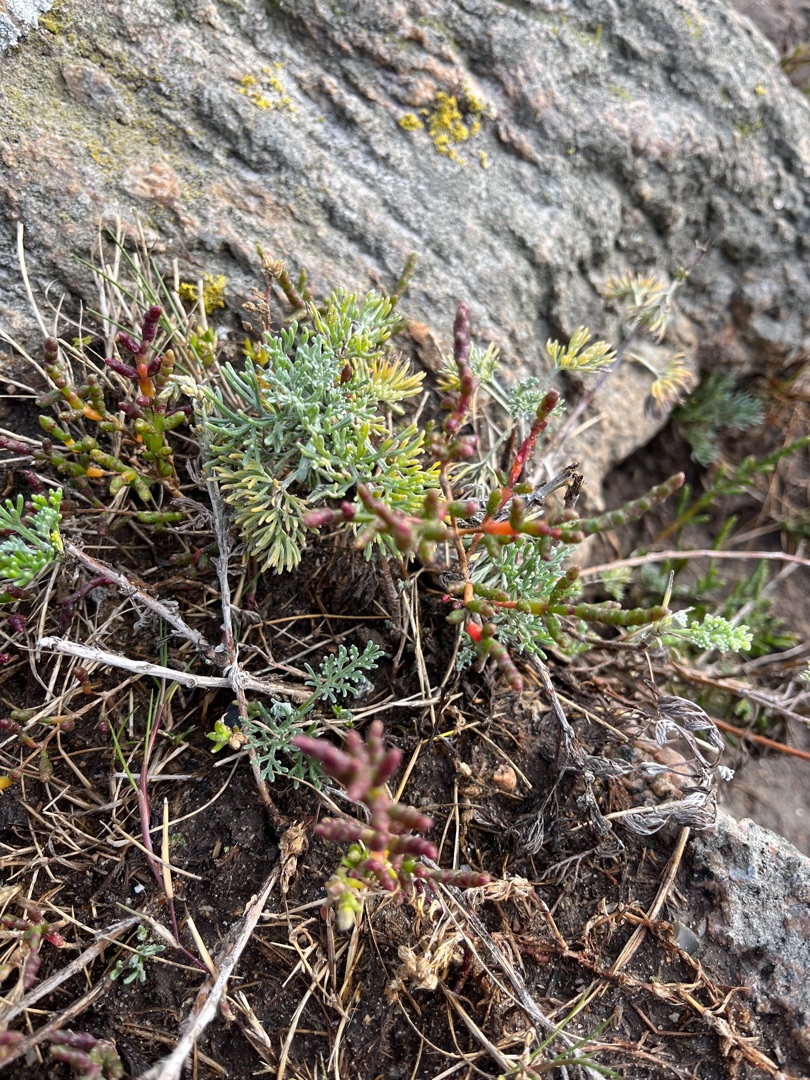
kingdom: Plantae
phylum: Tracheophyta
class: Magnoliopsida
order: Asterales
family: Asteraceae
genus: Artemisia
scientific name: Artemisia maritima
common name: Strandmalurt
